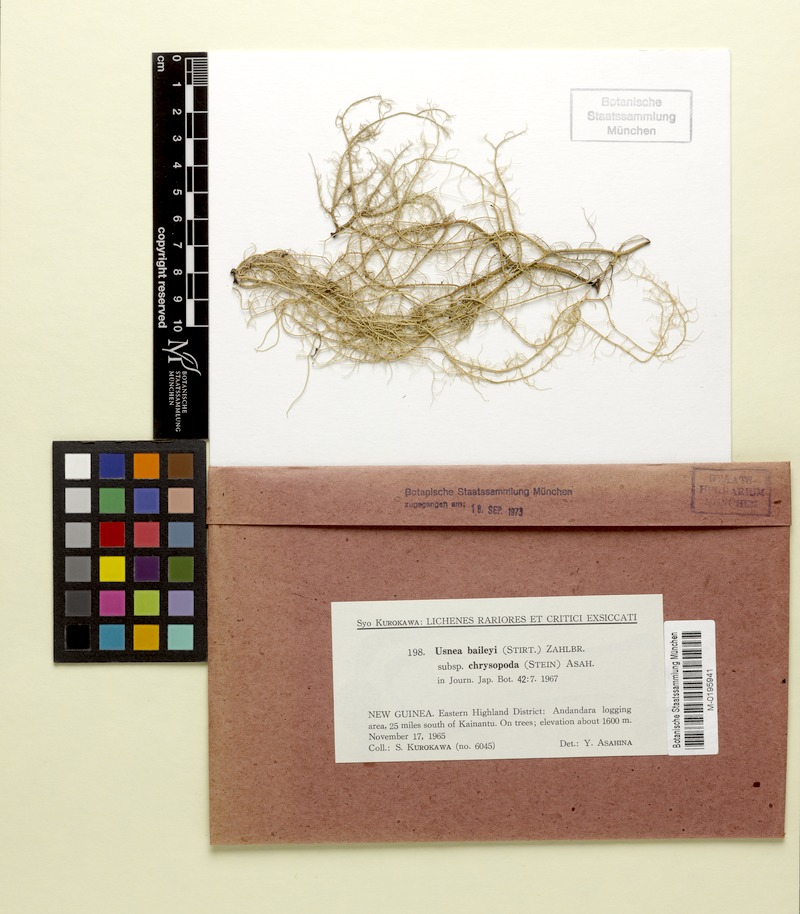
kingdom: Fungi
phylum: Ascomycota
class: Lecanoromycetes
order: Lecanorales
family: Parmeliaceae
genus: Eumitria
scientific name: Eumitria baileyi
